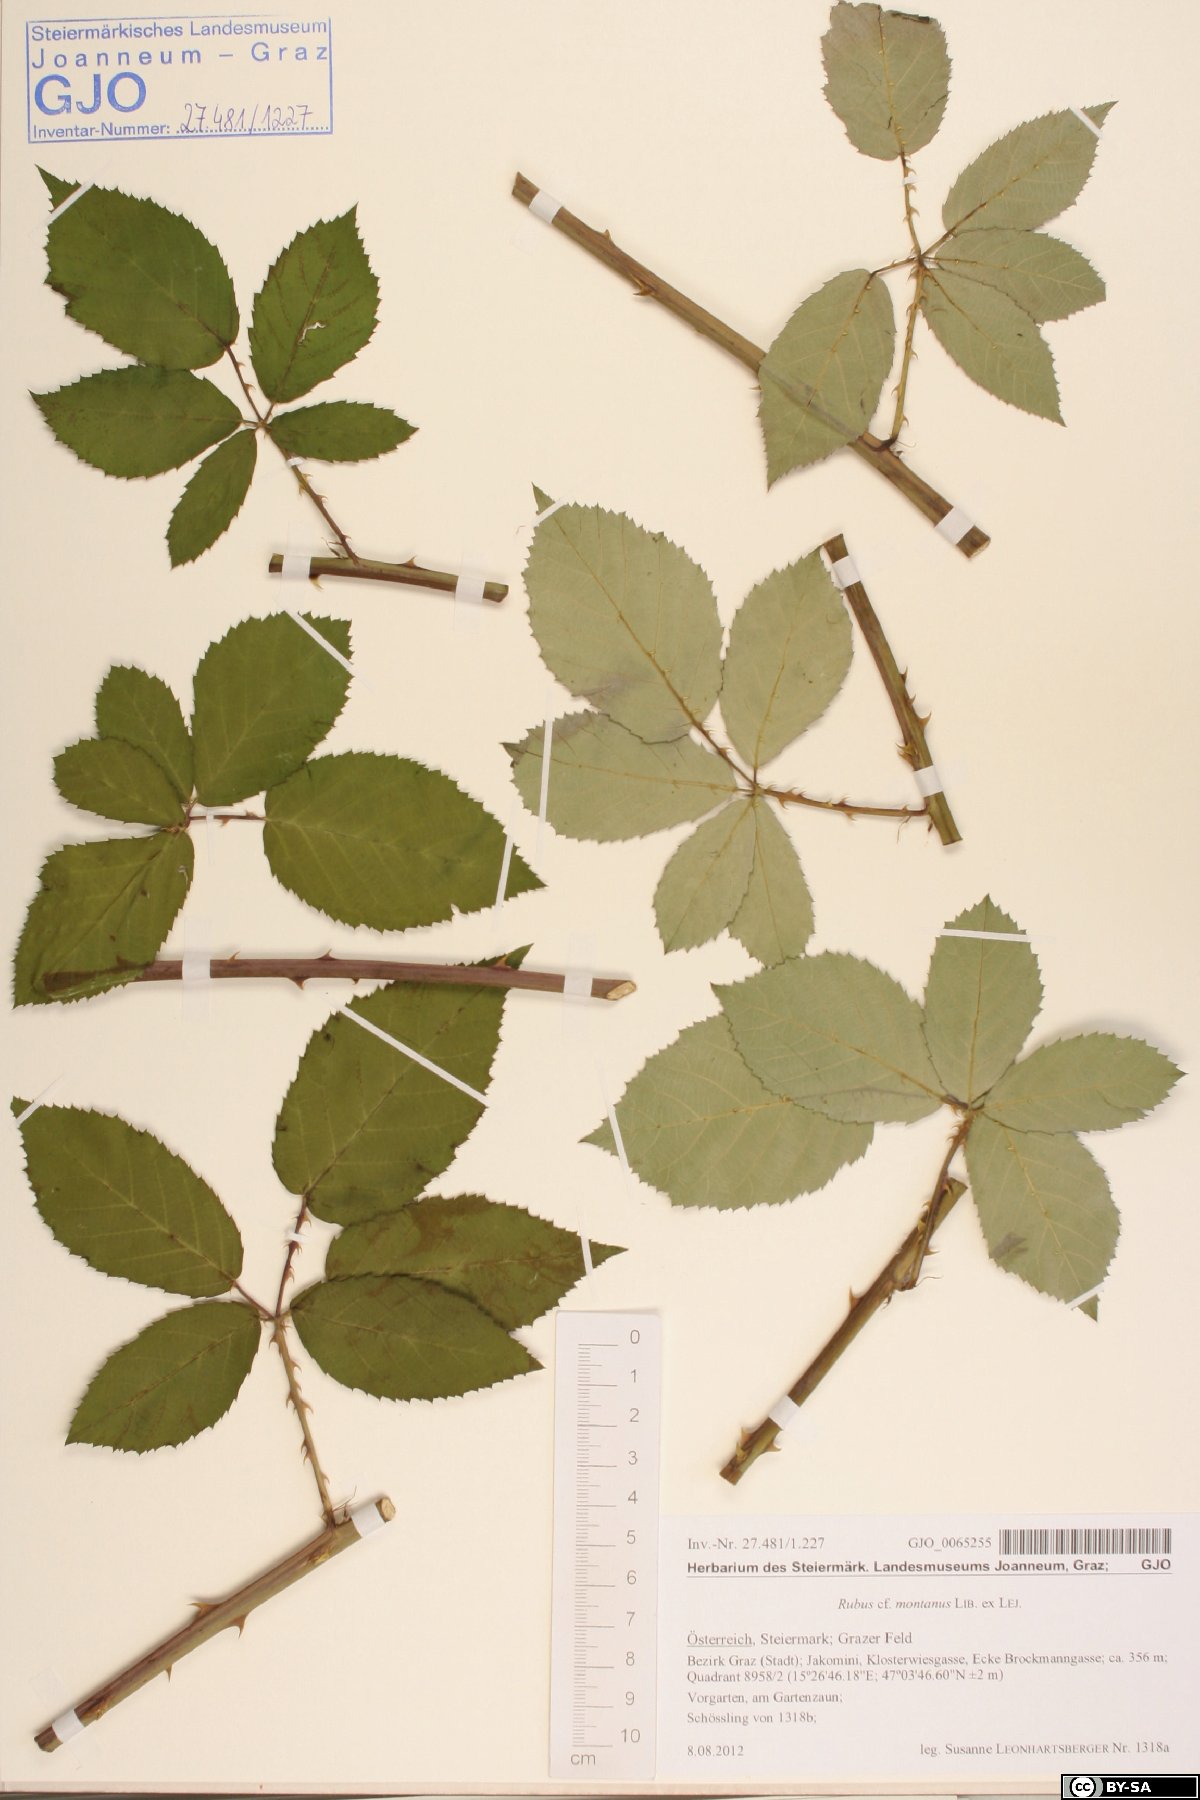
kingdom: Plantae
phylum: Tracheophyta
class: Magnoliopsida
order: Rosales
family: Rosaceae
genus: Rubus
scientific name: Rubus montanus
